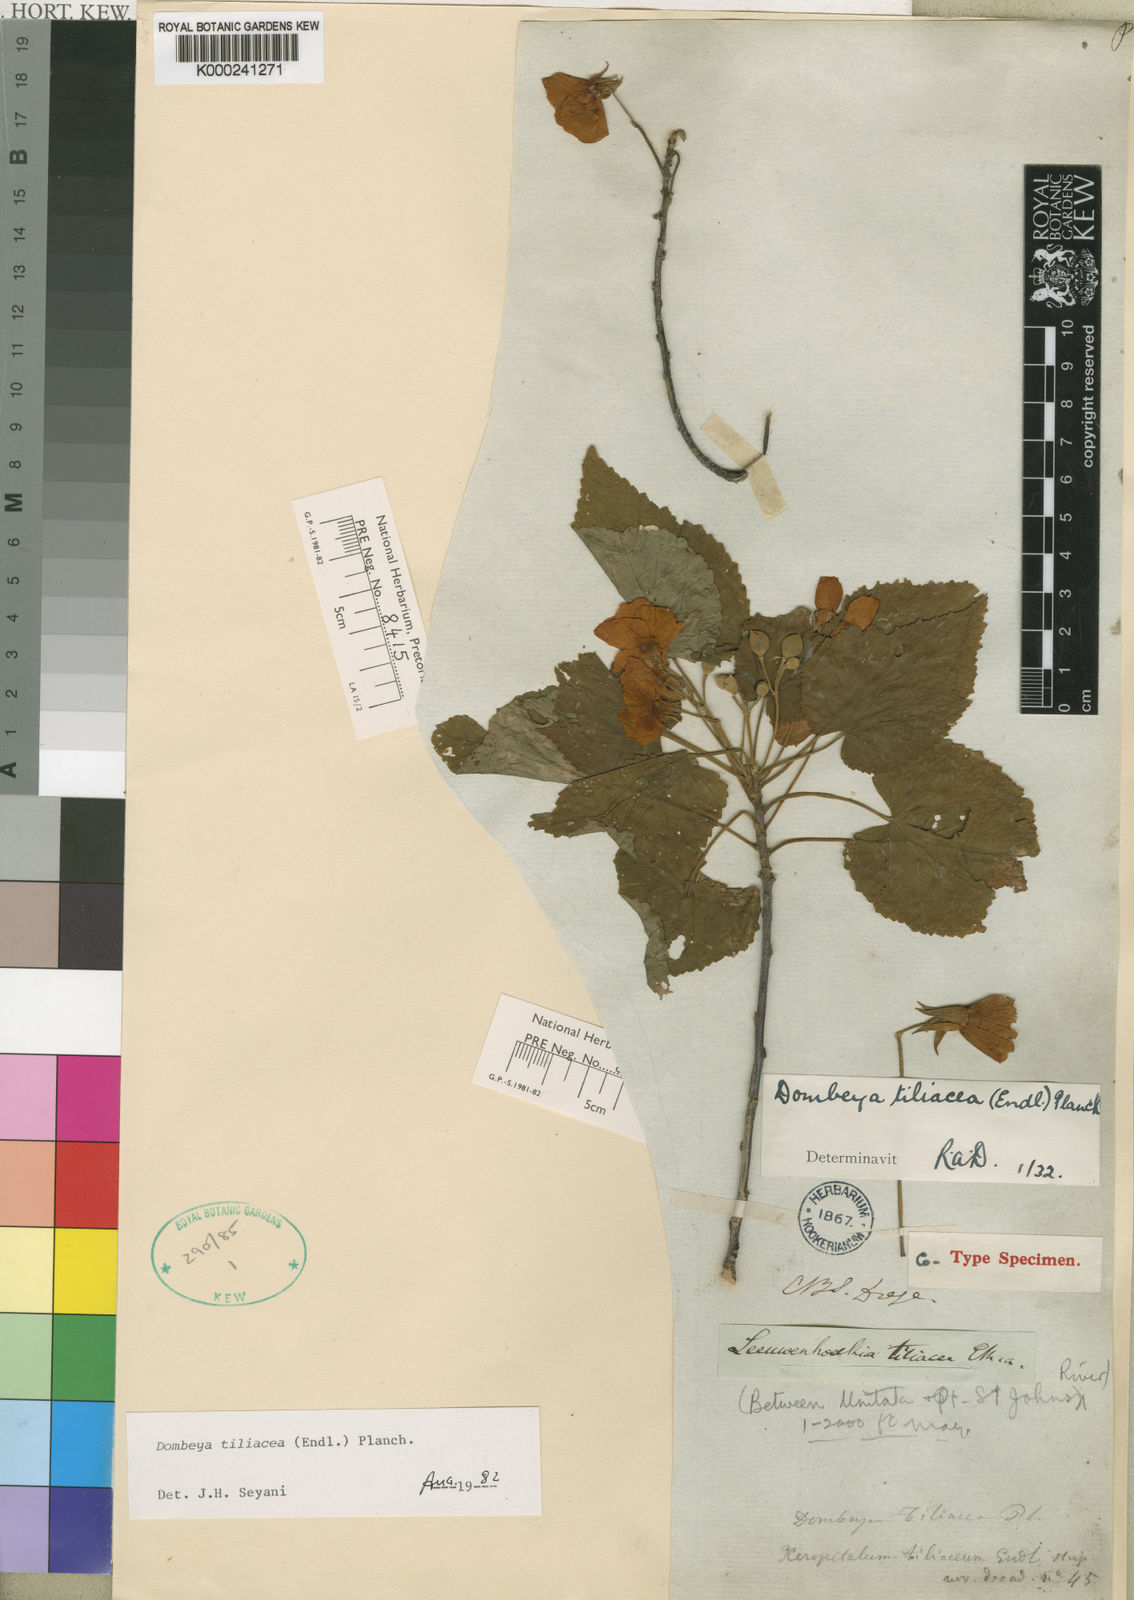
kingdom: Plantae
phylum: Tracheophyta
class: Magnoliopsida
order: Malvales
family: Malvaceae
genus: Dombeya
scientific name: Dombeya tiliacea
